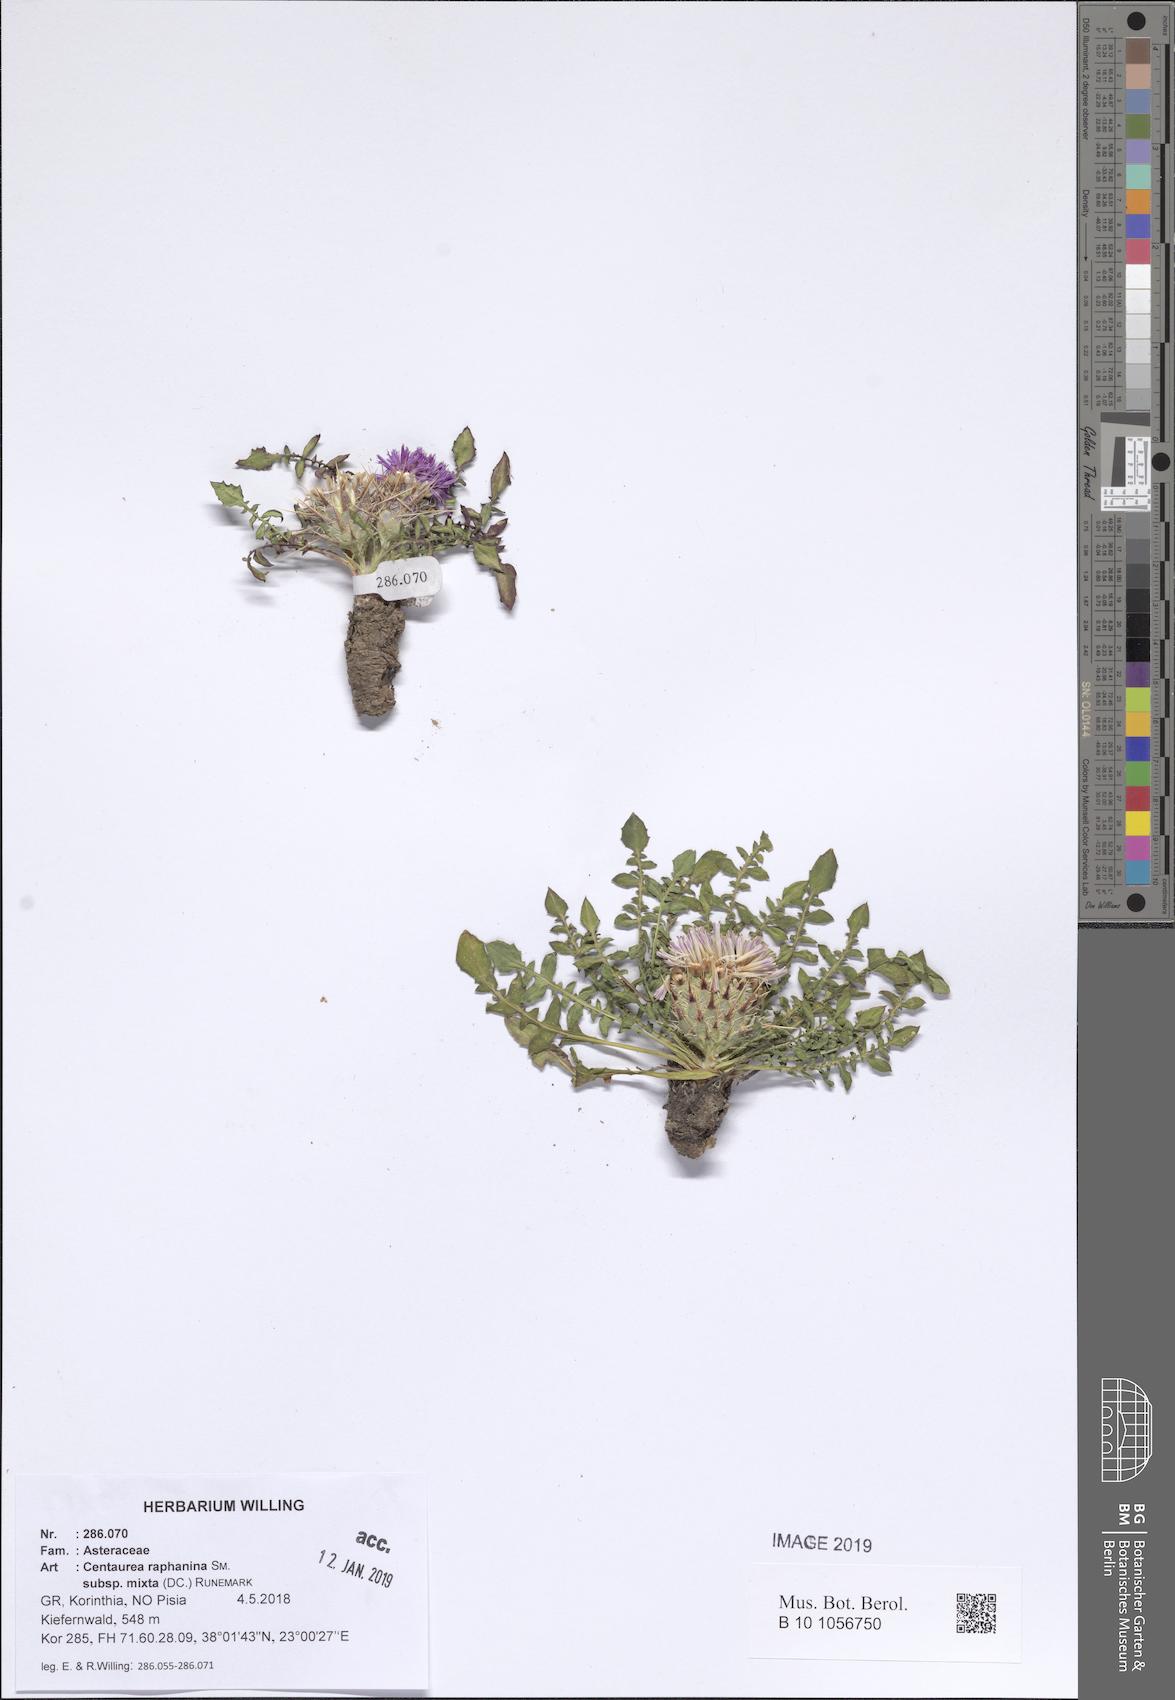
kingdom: Plantae
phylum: Tracheophyta
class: Magnoliopsida
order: Asterales
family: Asteraceae
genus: Centaurea
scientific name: Centaurea raphanina
